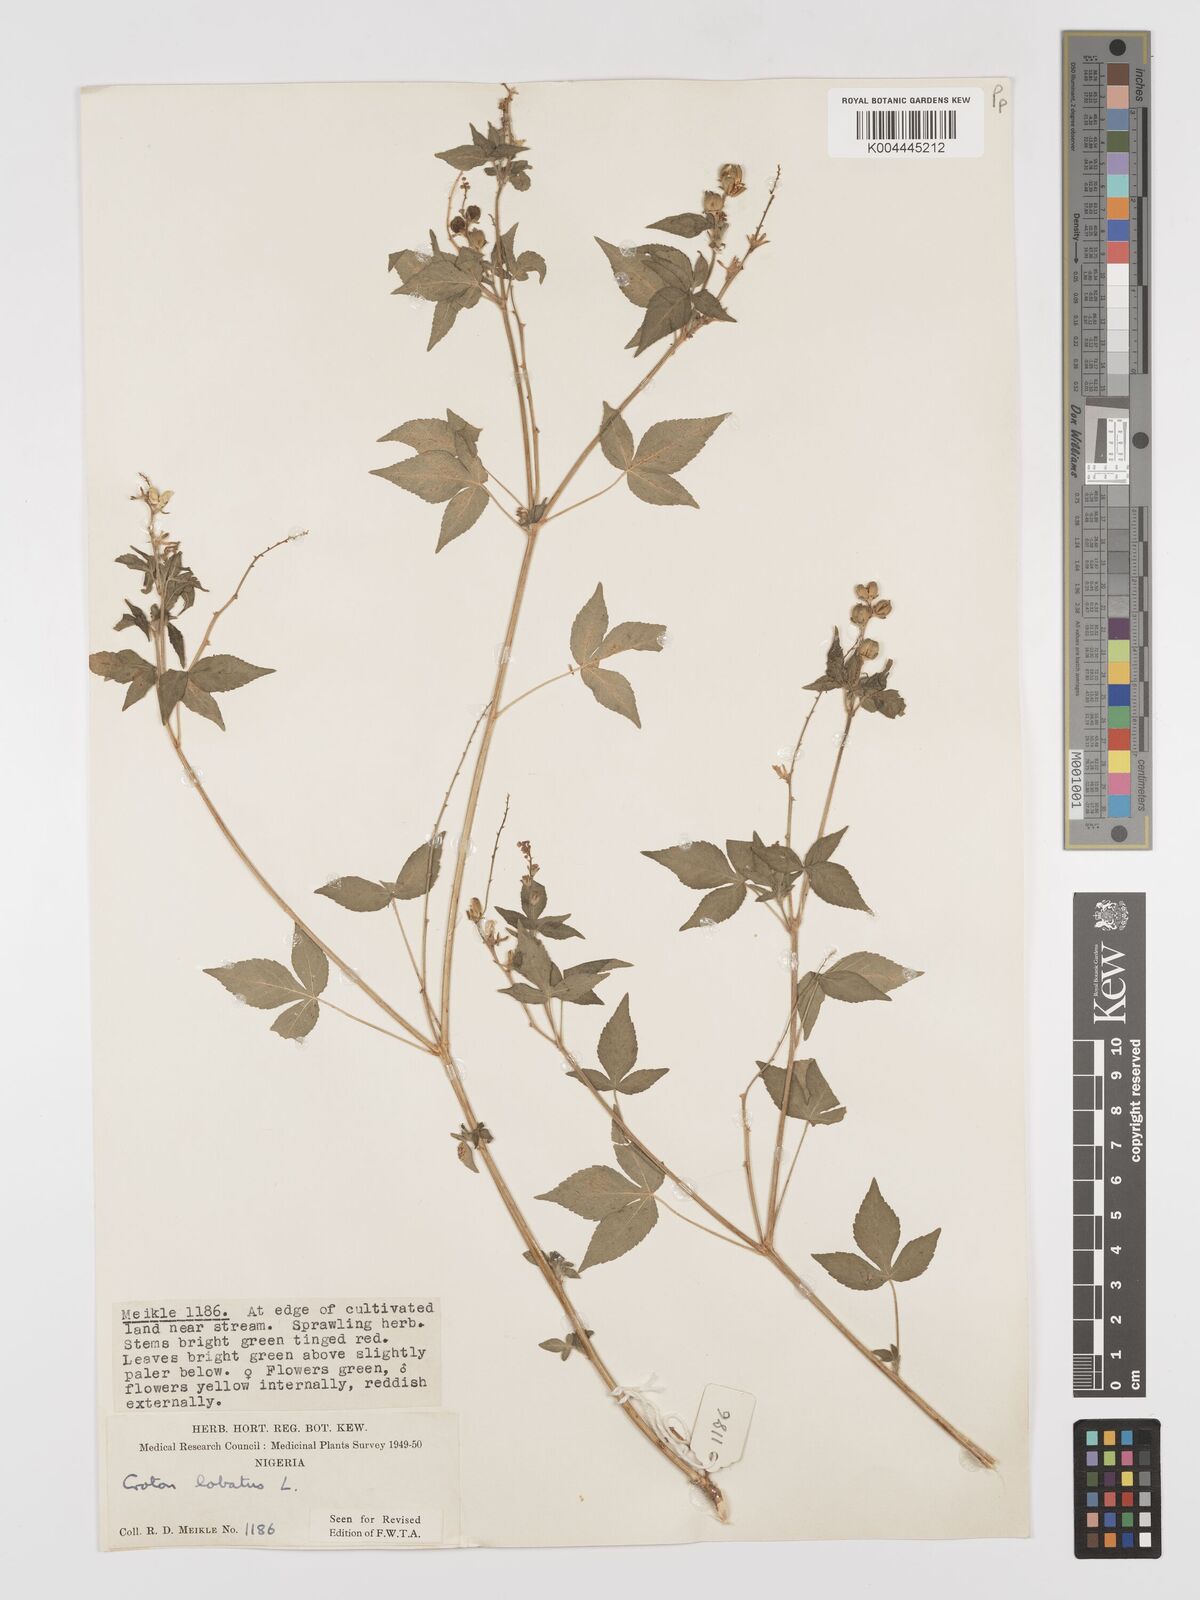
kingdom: Plantae
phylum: Tracheophyta
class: Magnoliopsida
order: Malpighiales
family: Euphorbiaceae
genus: Astraea
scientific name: Astraea lobata
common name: Lobed croton
